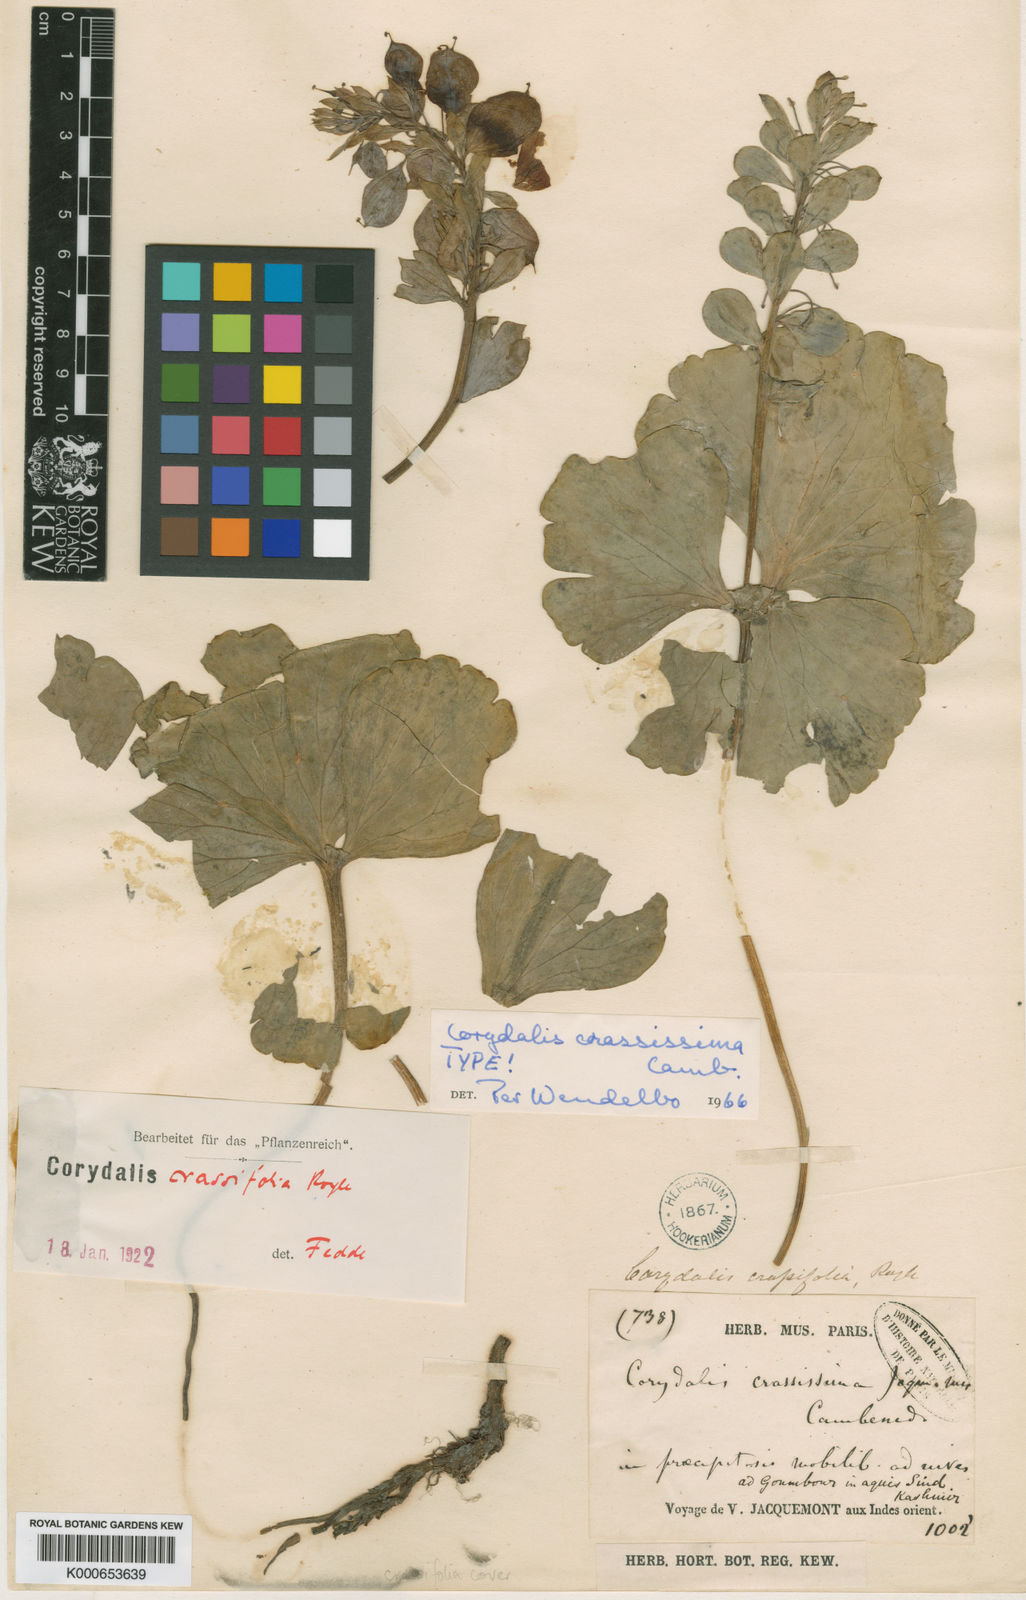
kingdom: Plantae
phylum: Tracheophyta
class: Magnoliopsida
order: Ranunculales
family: Papaveraceae
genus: Corydalis
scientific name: Corydalis crassifolia
